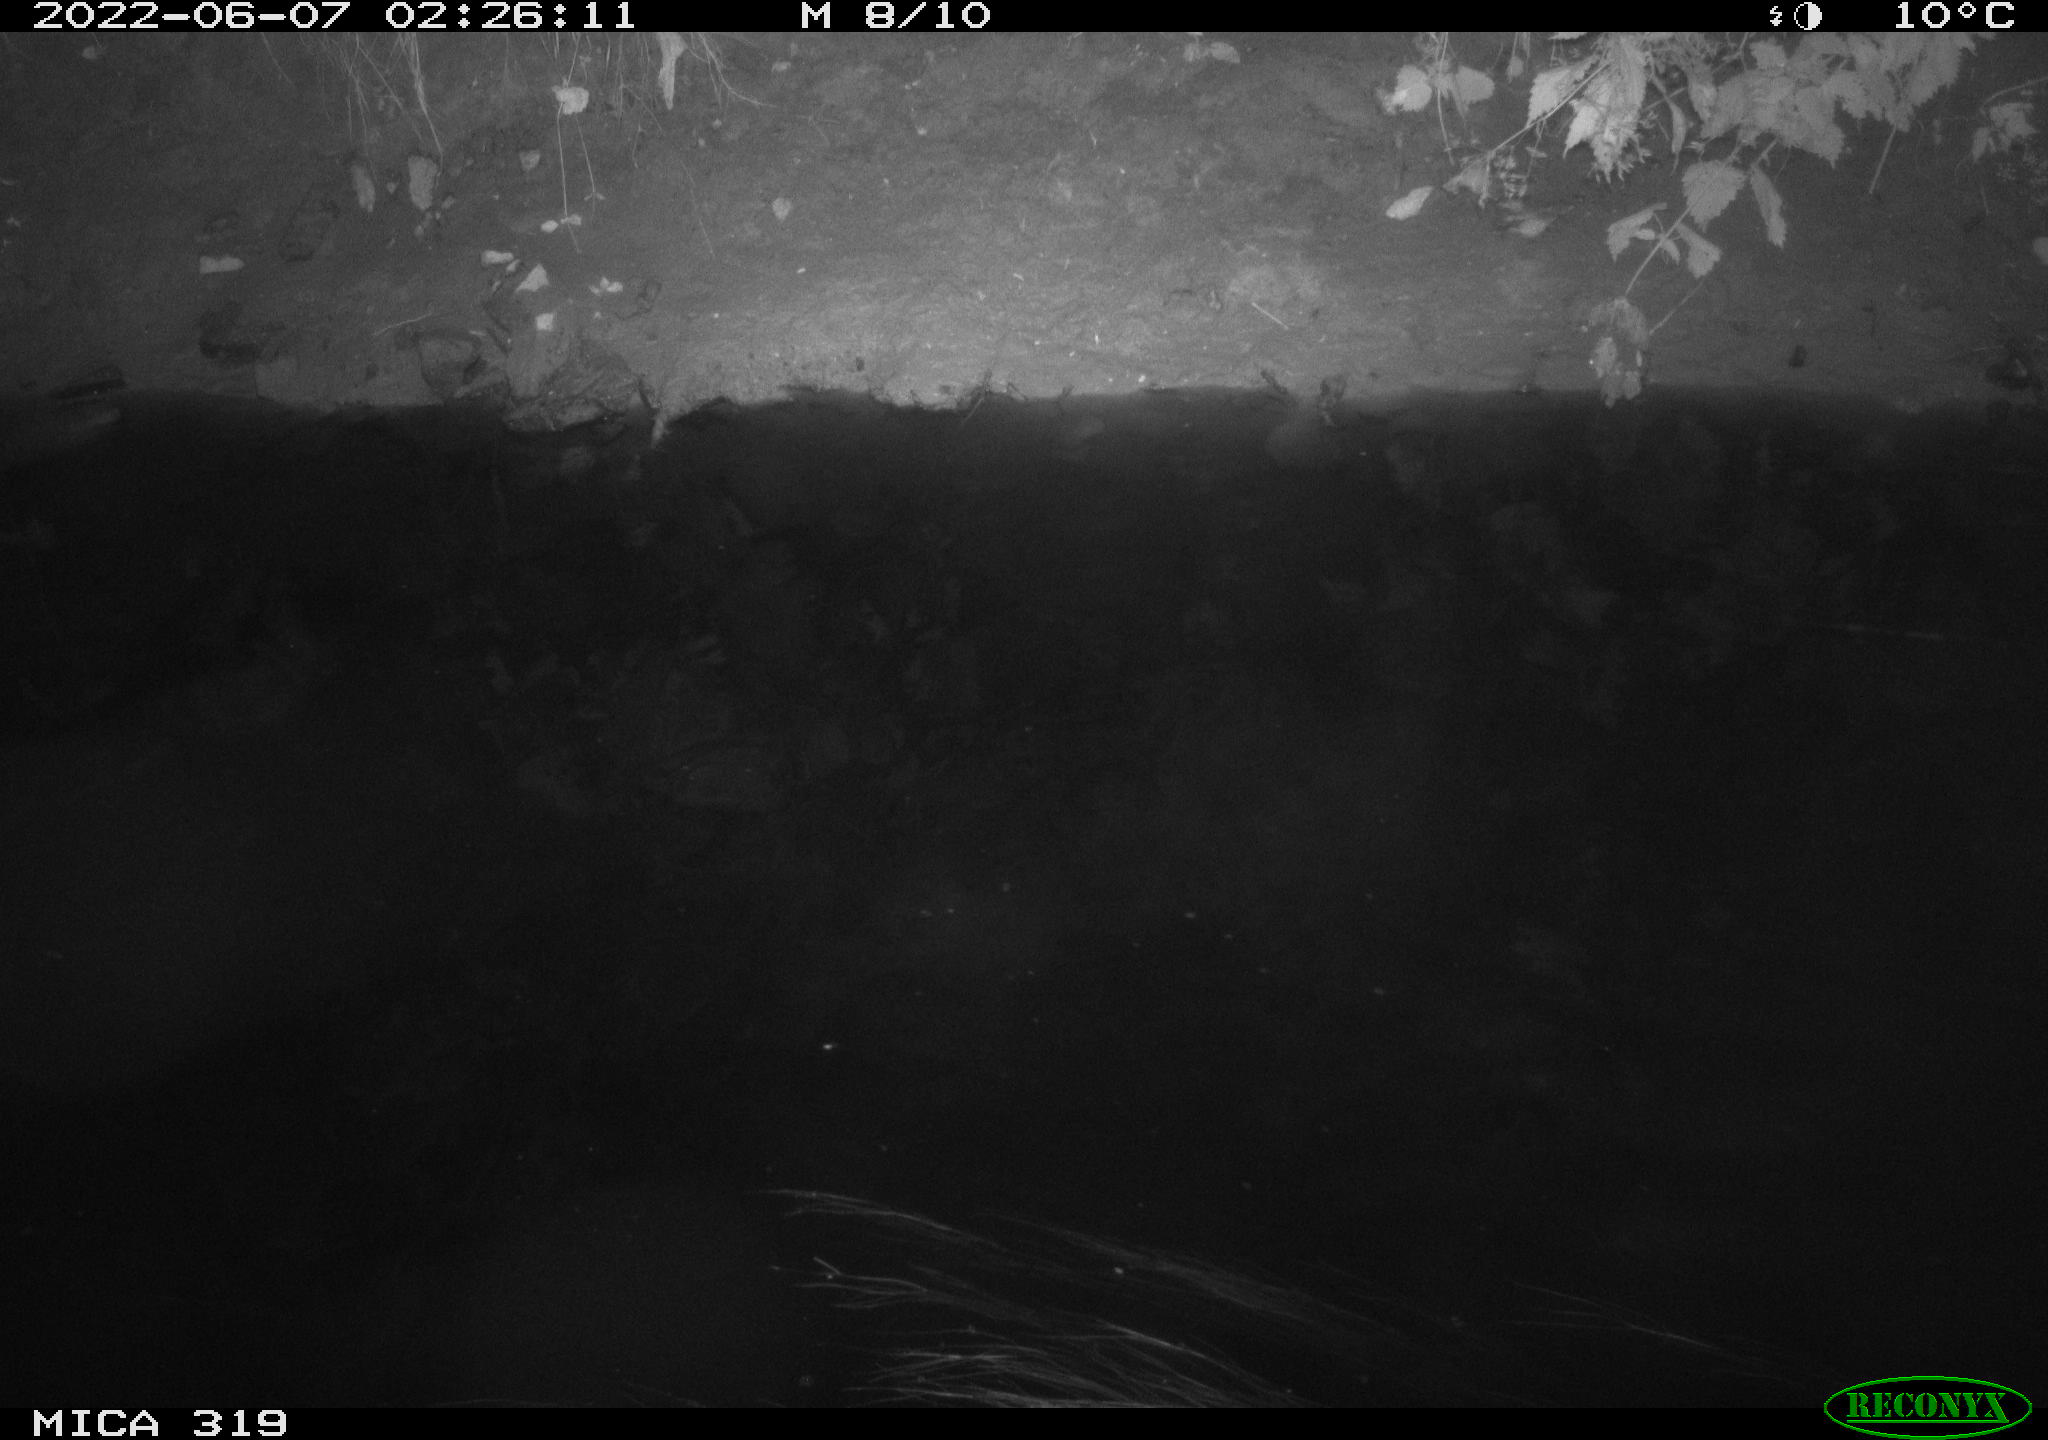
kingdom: Animalia
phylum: Chordata
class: Aves
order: Anseriformes
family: Anatidae
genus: Anas
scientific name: Anas
